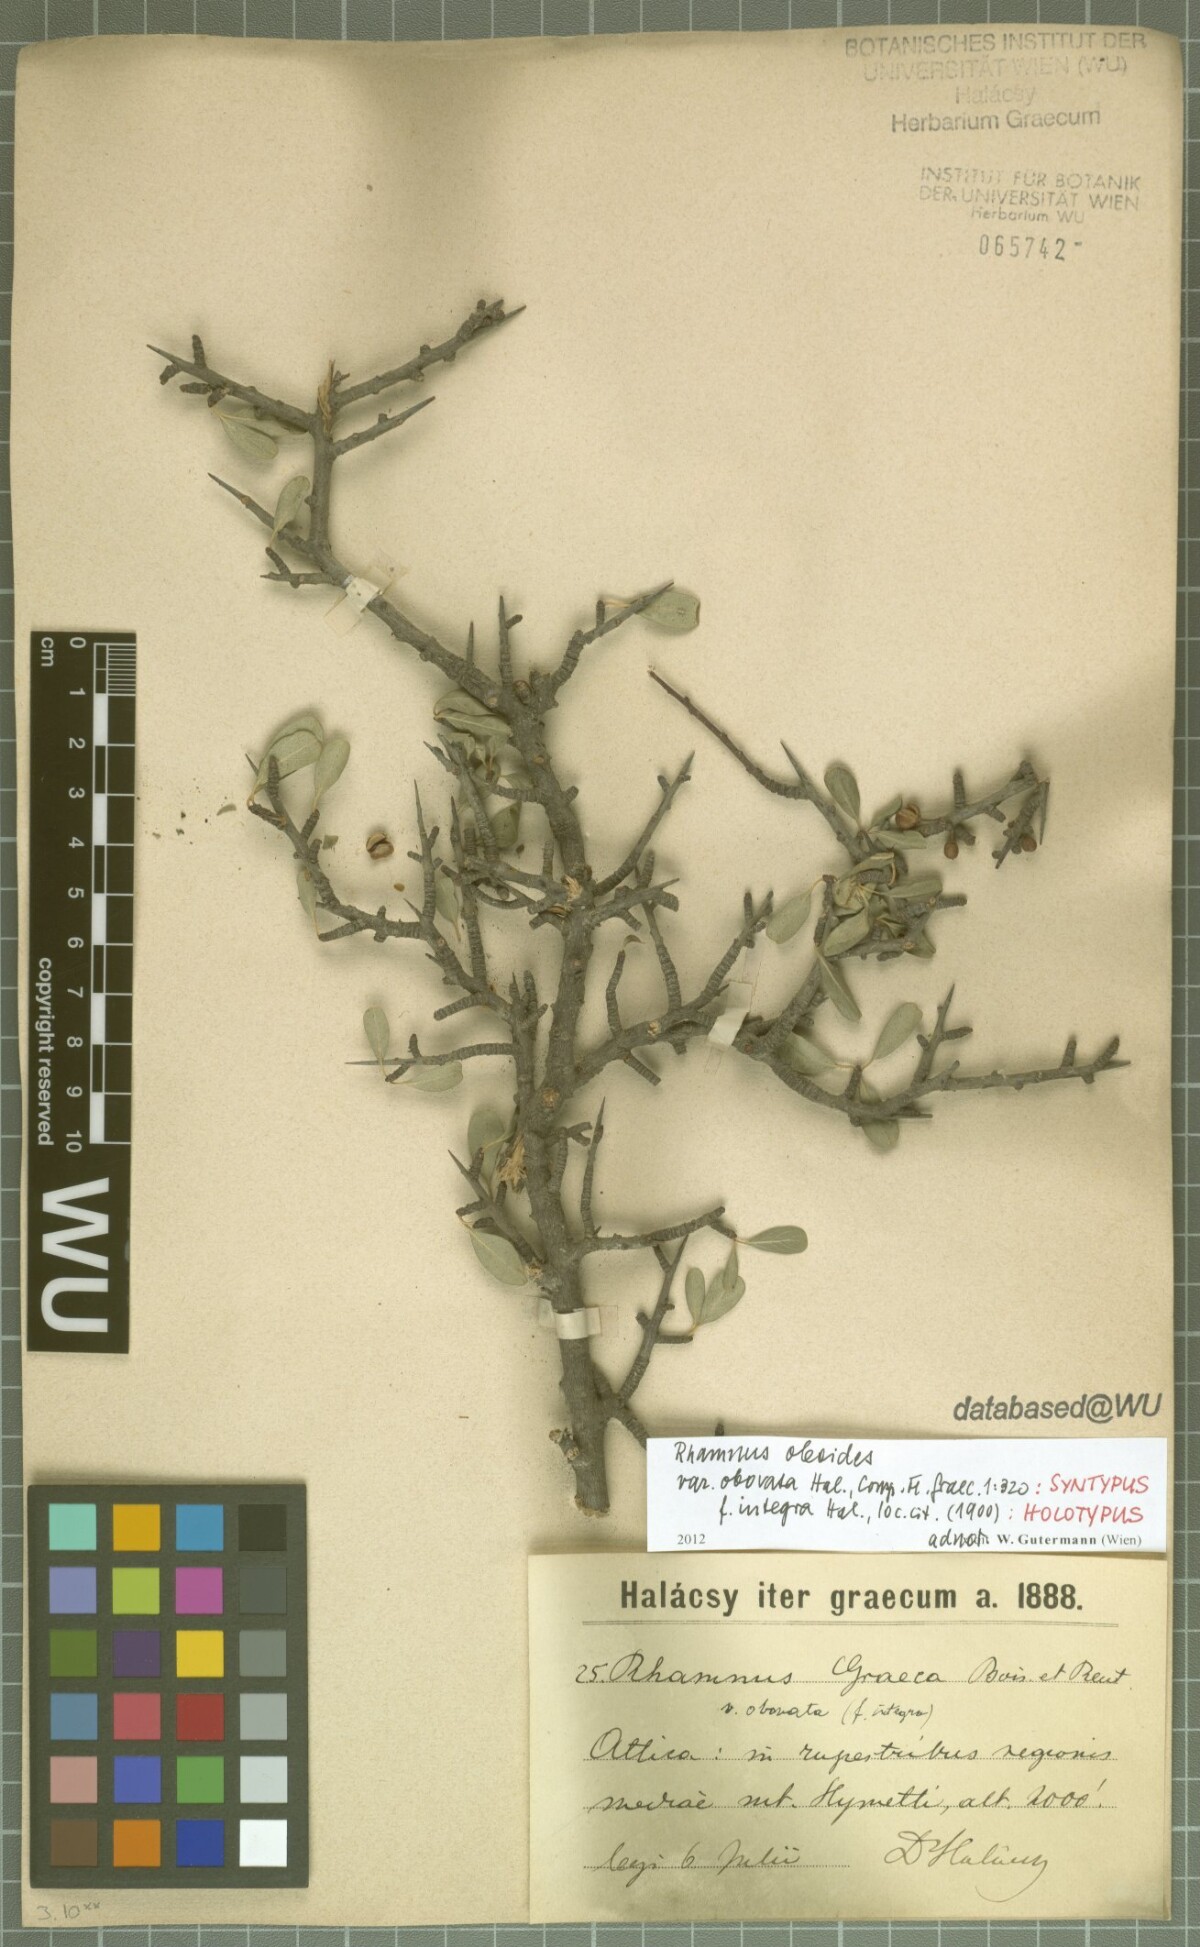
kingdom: Plantae
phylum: Tracheophyta
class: Magnoliopsida
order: Rosales
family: Rhamnaceae
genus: Rhamnus
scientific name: Rhamnus oleoides
